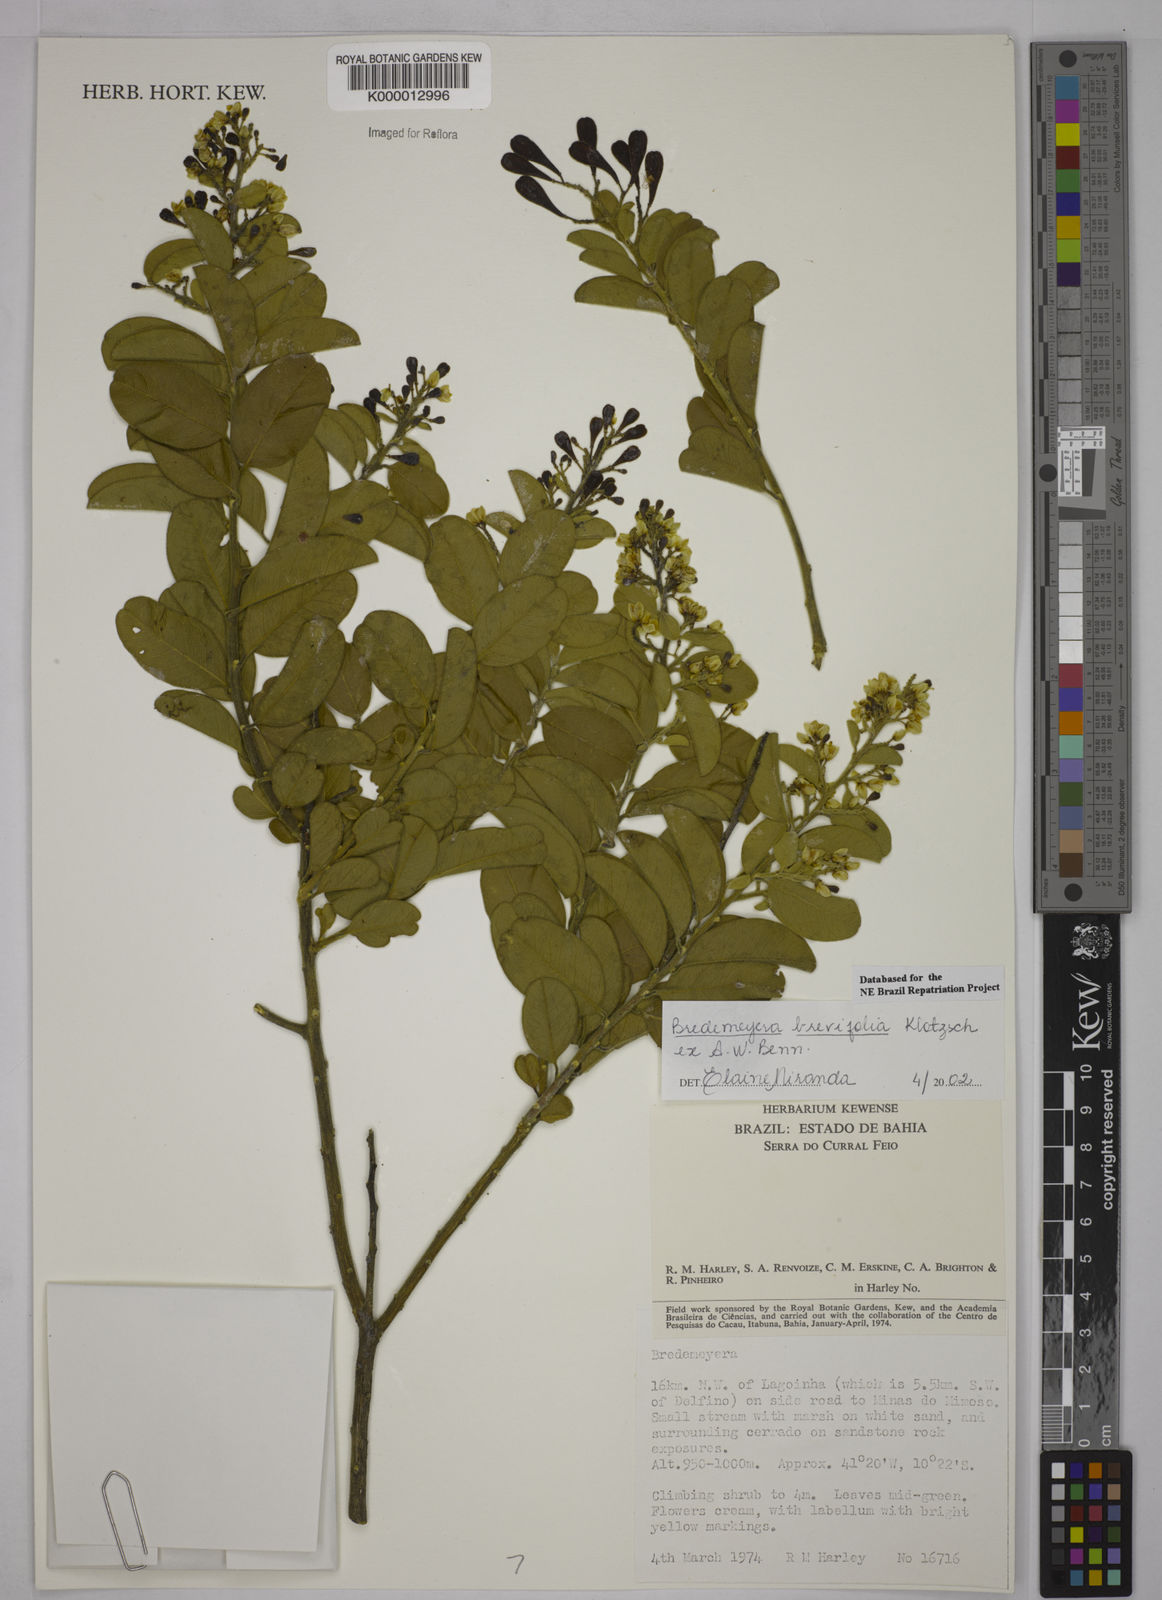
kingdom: Plantae
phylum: Tracheophyta
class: Magnoliopsida
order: Fabales
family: Polygalaceae
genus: Bredemeyera
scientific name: Bredemeyera brevifolia
